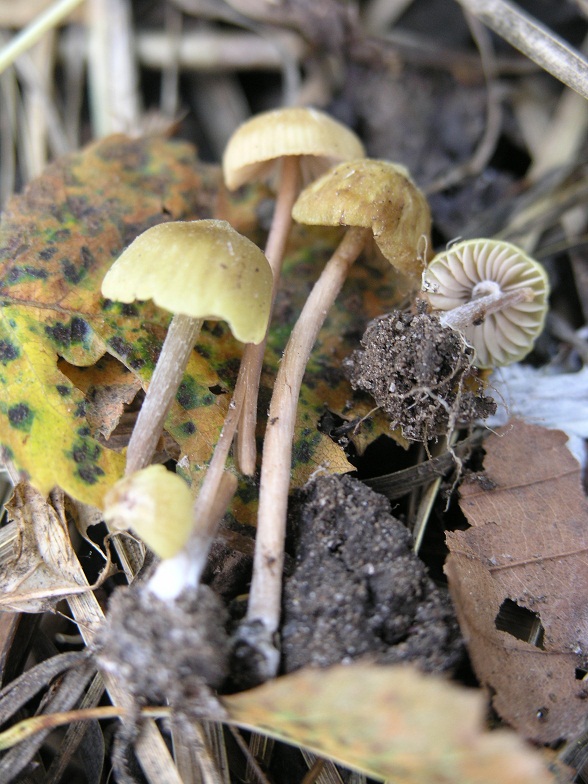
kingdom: Fungi
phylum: Basidiomycota
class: Agaricomycetes
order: Agaricales
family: Entolomataceae
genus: Entoloma
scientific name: Entoloma pleopodium
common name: duftende rødblad
